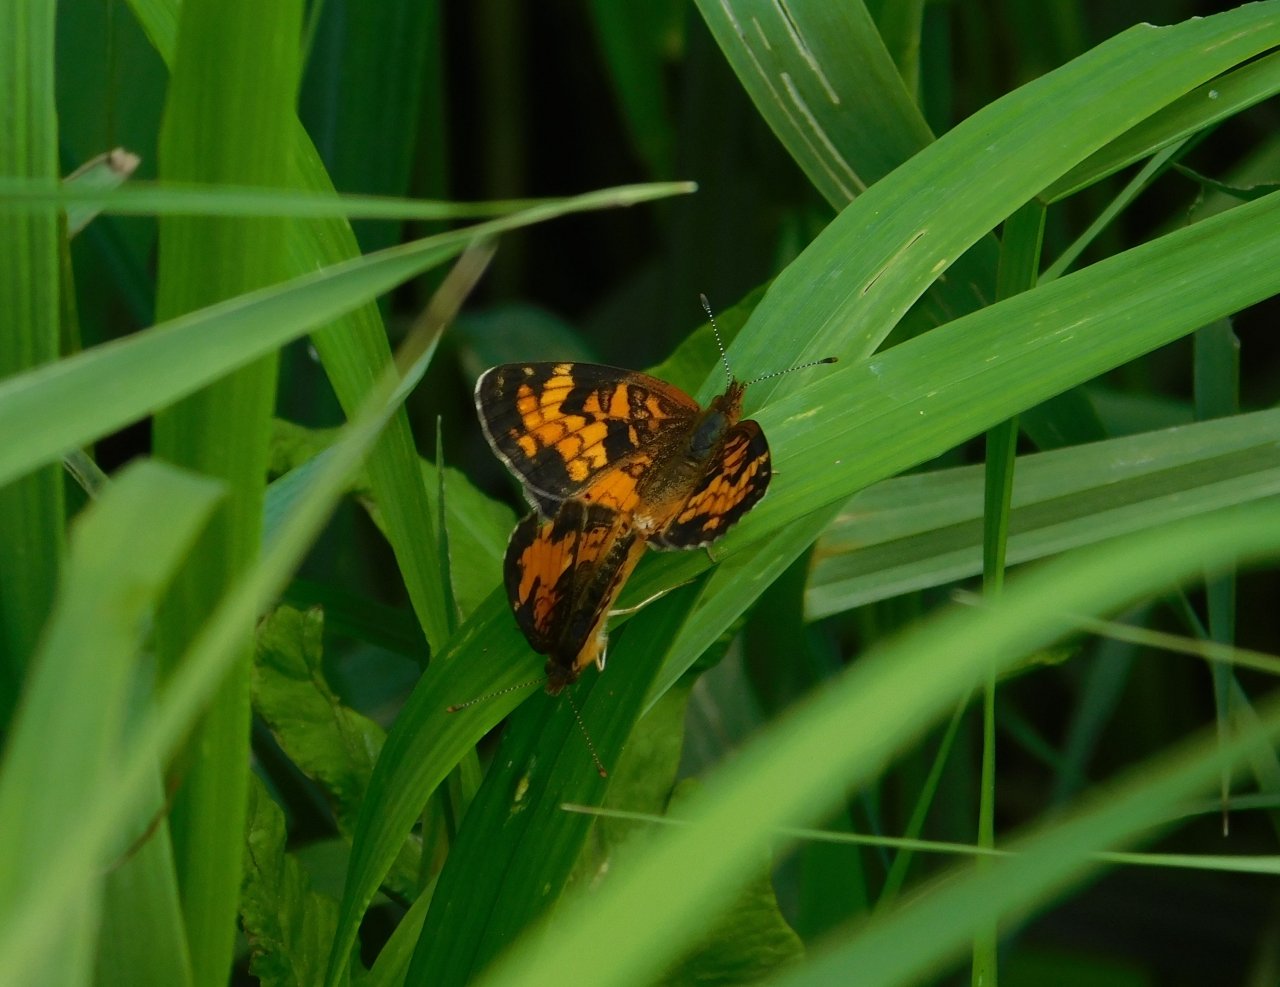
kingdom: Animalia
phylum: Arthropoda
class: Insecta
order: Lepidoptera
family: Nymphalidae
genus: Phyciodes
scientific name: Phyciodes tharos
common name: Northern Crescent
